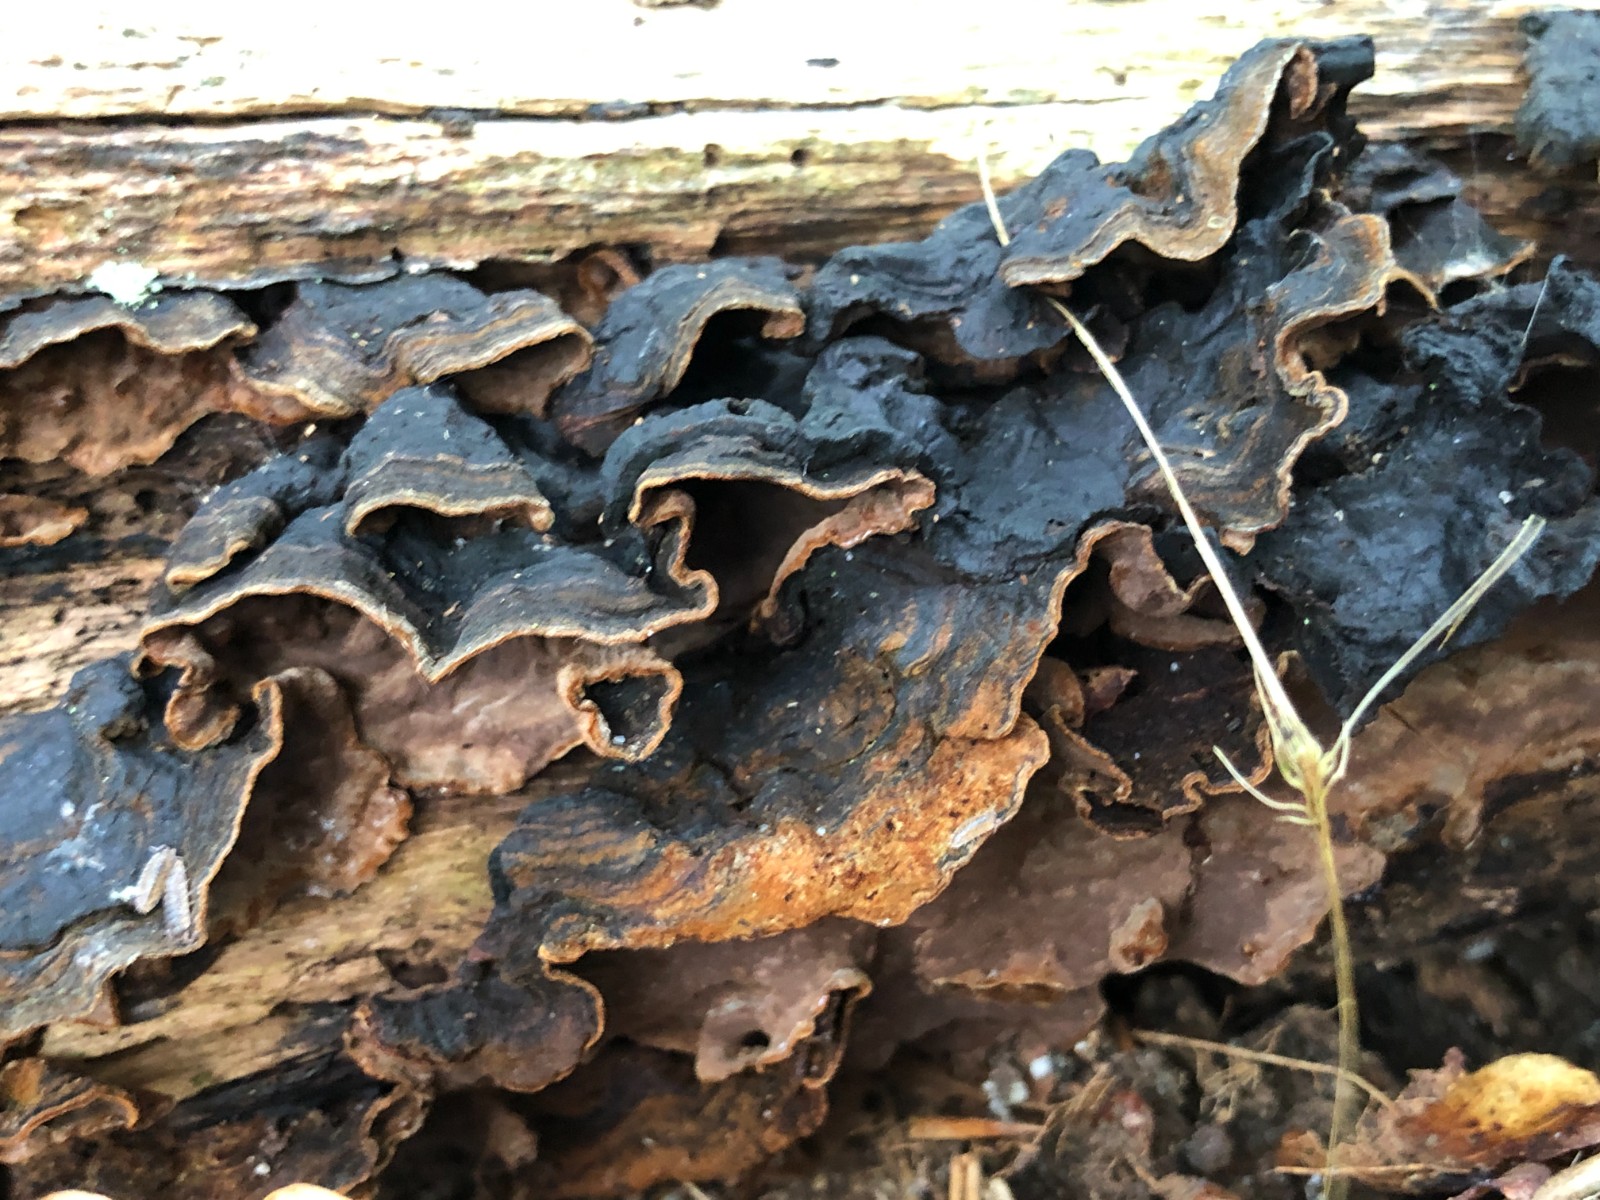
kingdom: Fungi
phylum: Basidiomycota
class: Agaricomycetes
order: Hymenochaetales
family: Hymenochaetaceae
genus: Hymenochaete
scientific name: Hymenochaete rubiginosa
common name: stiv ruslædersvamp
